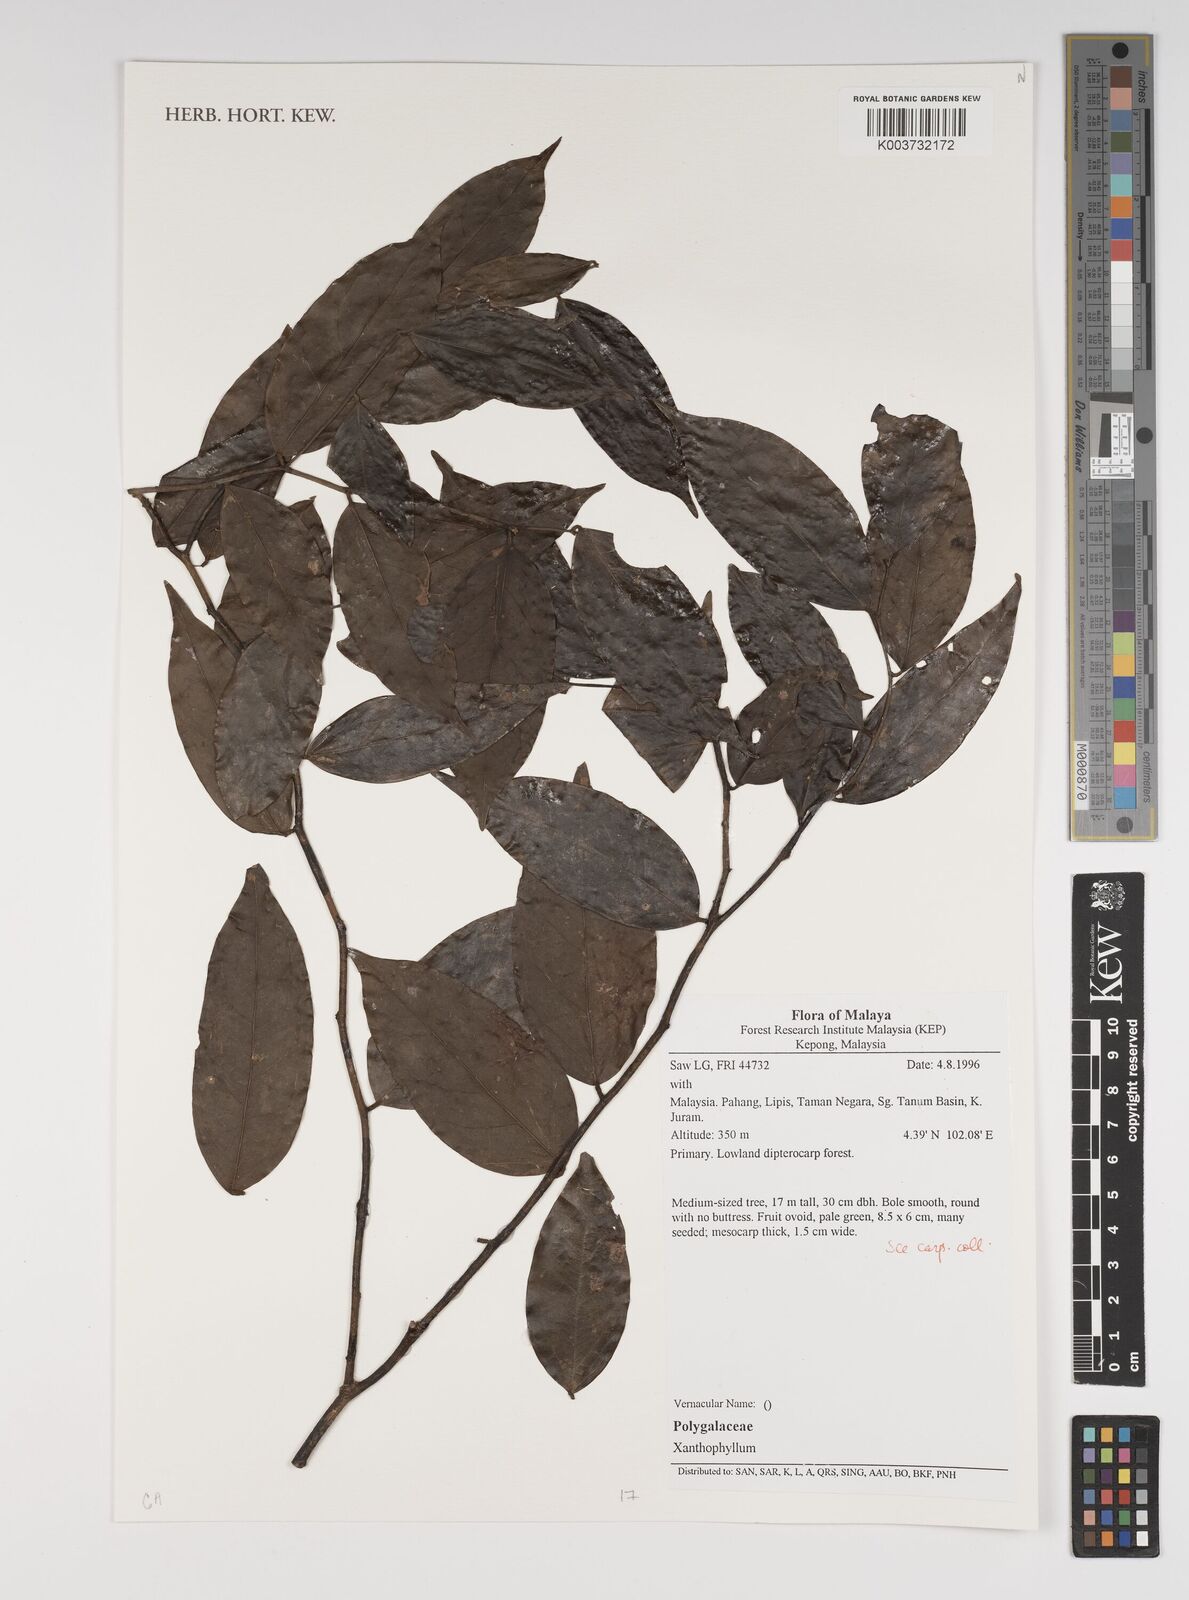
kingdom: Plantae
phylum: Tracheophyta
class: Magnoliopsida
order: Fabales
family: Polygalaceae
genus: Xanthophyllum
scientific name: Xanthophyllum
